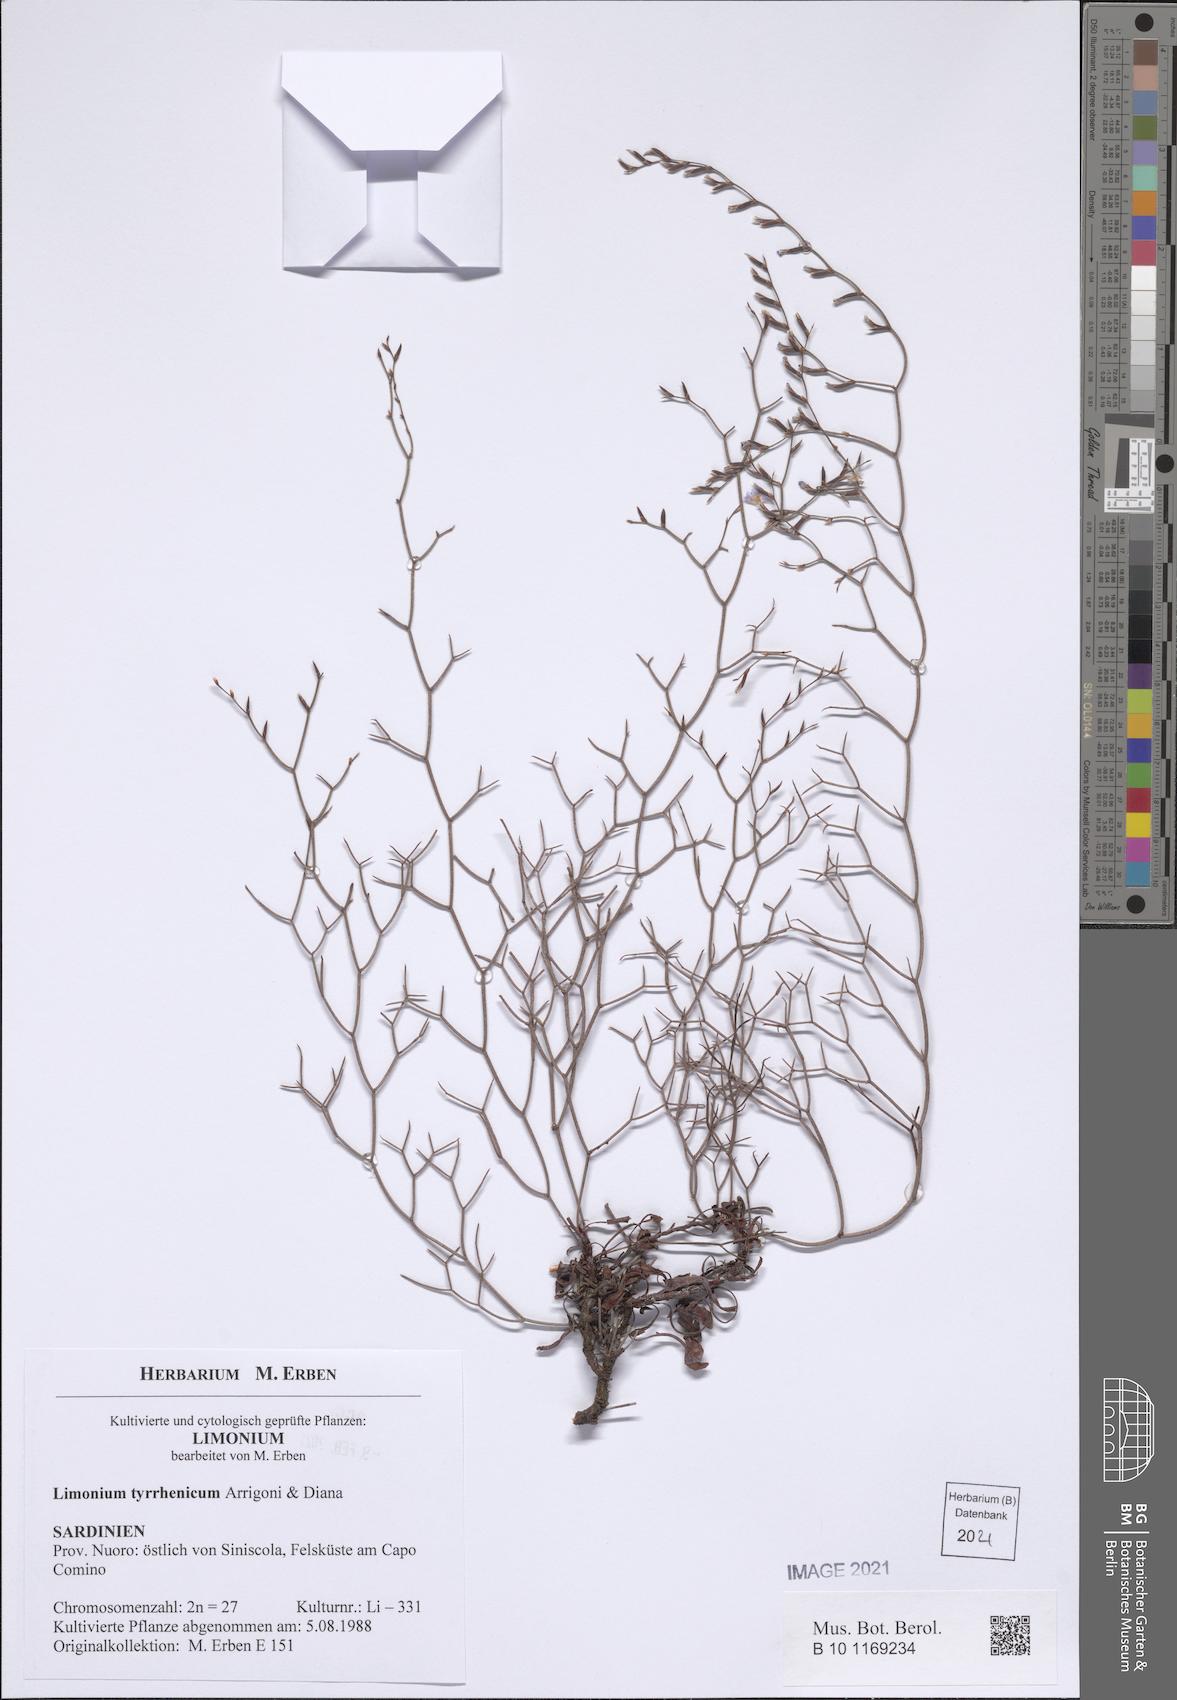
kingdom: Plantae
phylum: Tracheophyta
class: Magnoliopsida
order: Caryophyllales
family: Plumbaginaceae
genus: Limonium
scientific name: Limonium tyrrhenicum
